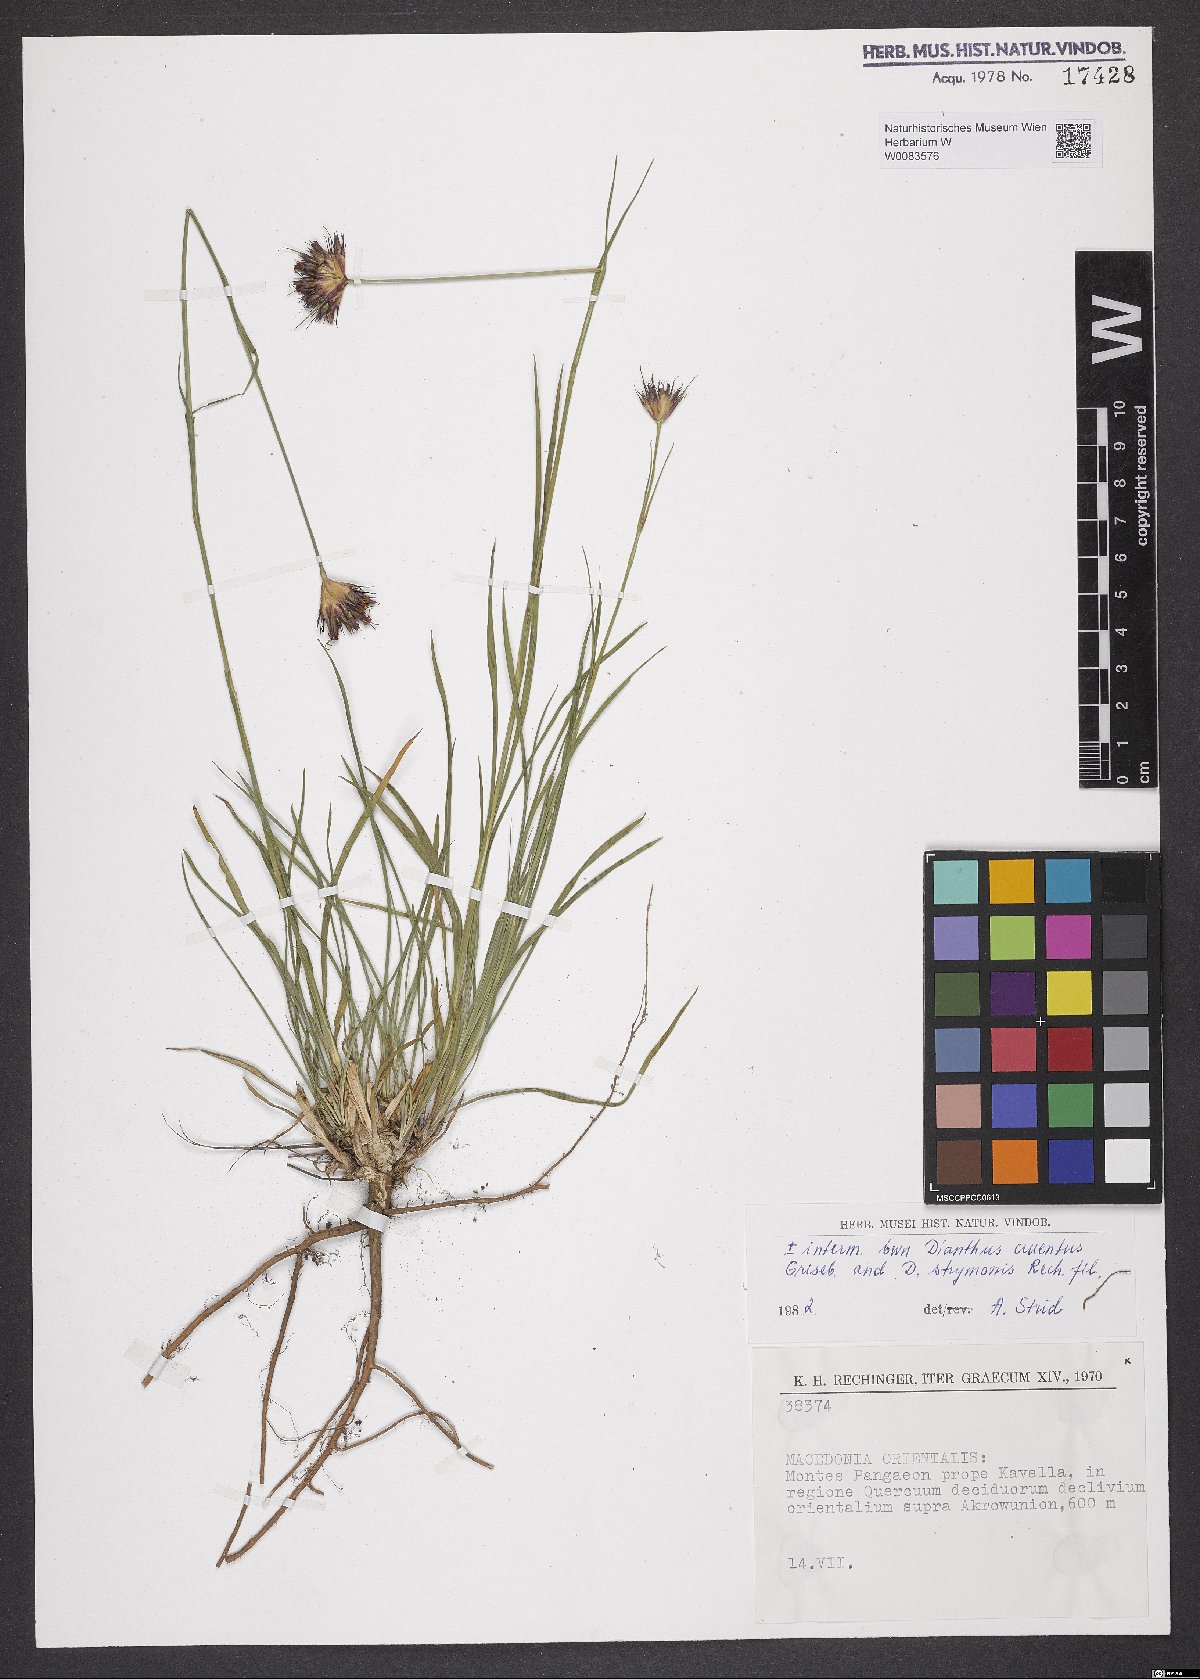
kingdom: Plantae
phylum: Tracheophyta
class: Magnoliopsida
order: Caryophyllales
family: Caryophyllaceae
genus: Dianthus
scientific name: Dianthus cruentus
